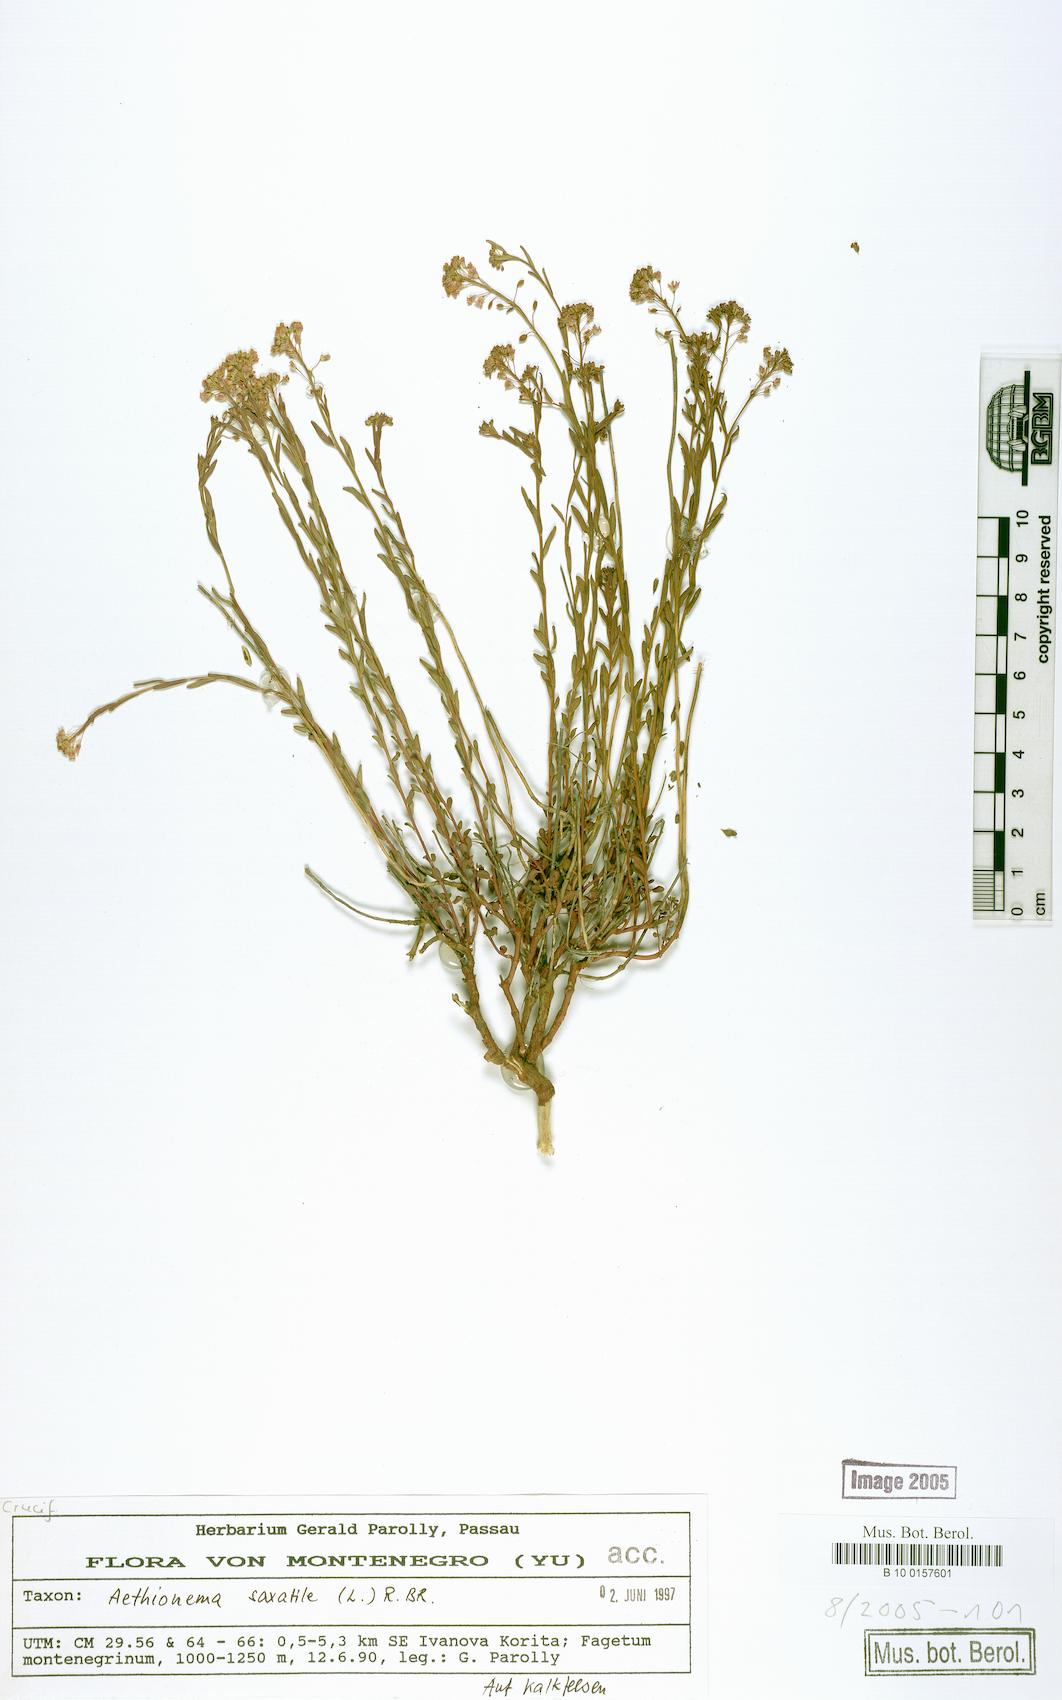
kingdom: Plantae
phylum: Tracheophyta
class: Magnoliopsida
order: Brassicales
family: Brassicaceae
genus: Aethionema
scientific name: Aethionema saxatile
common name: Burnt candytuft
